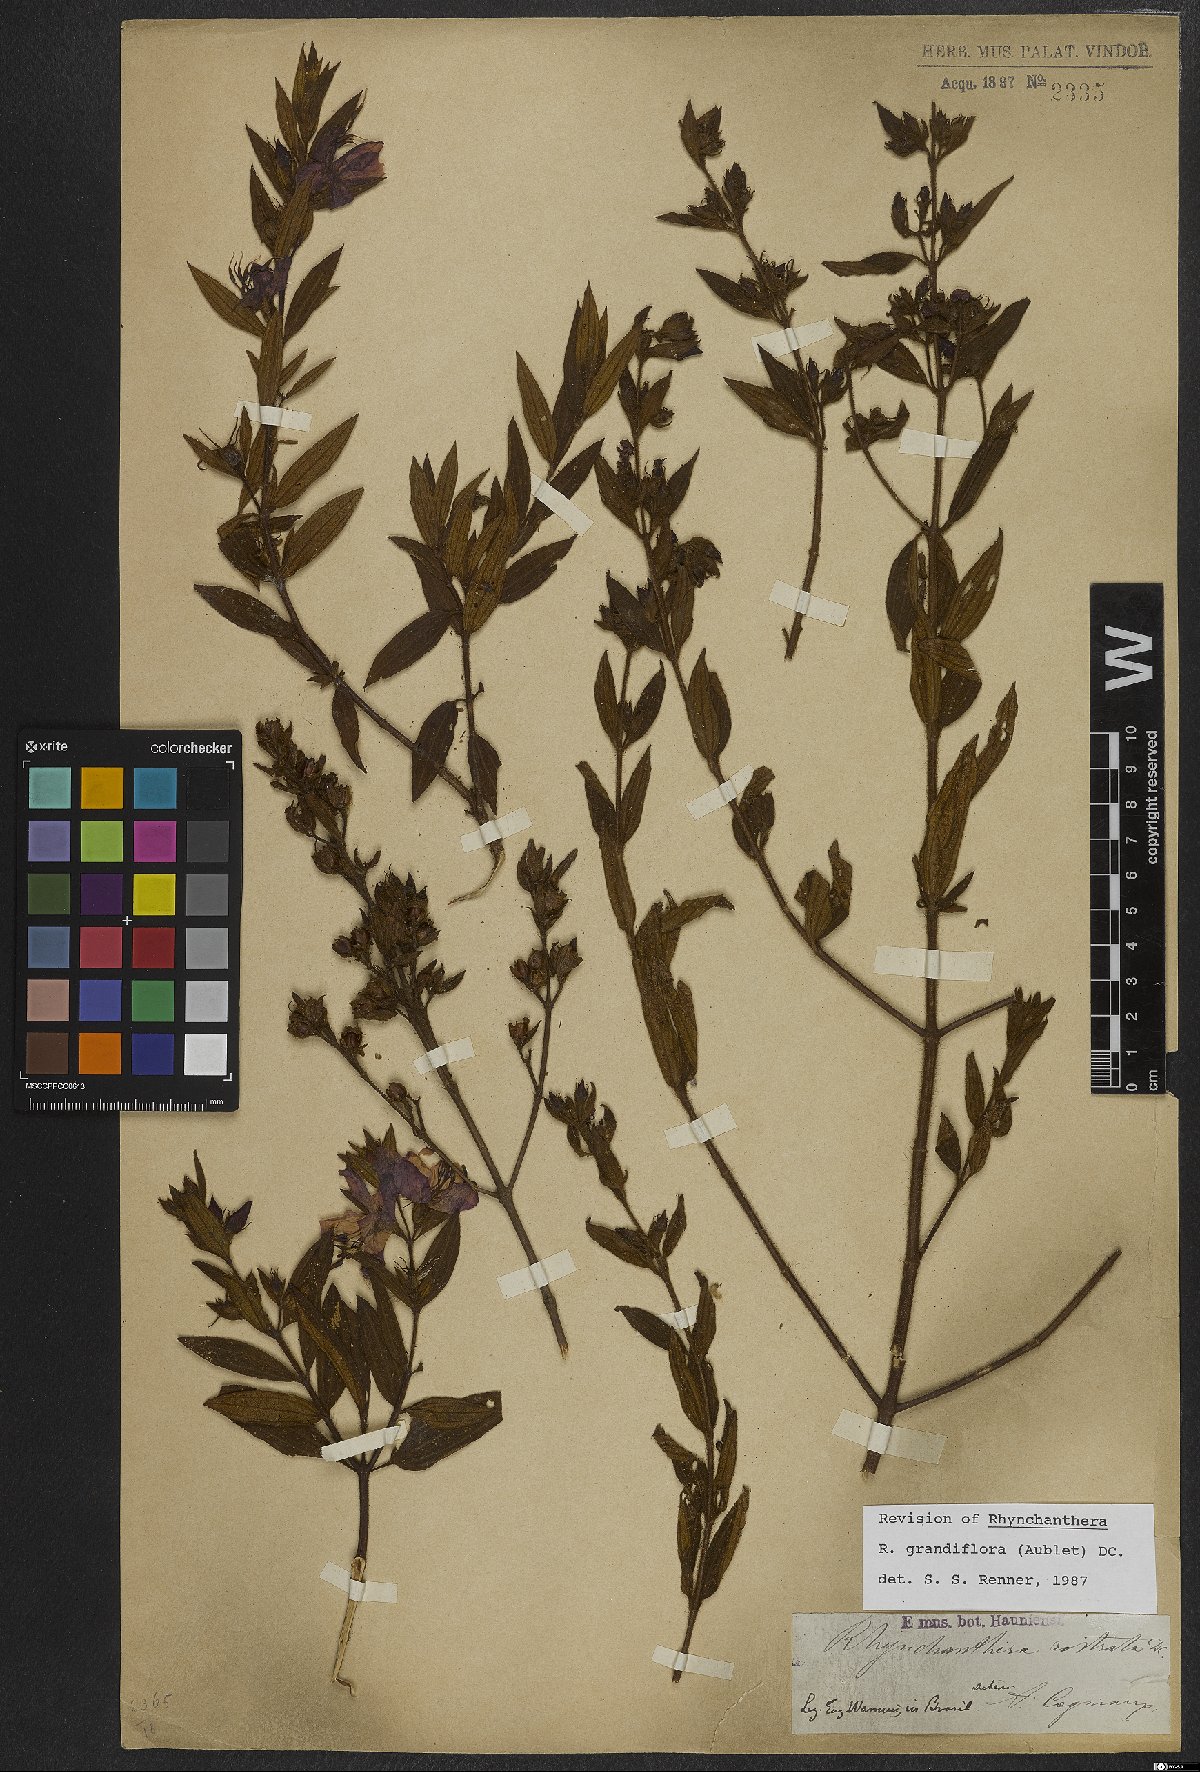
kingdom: Plantae
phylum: Tracheophyta
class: Magnoliopsida
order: Myrtales
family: Melastomataceae
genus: Rhynchanthera
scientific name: Rhynchanthera grandiflora
